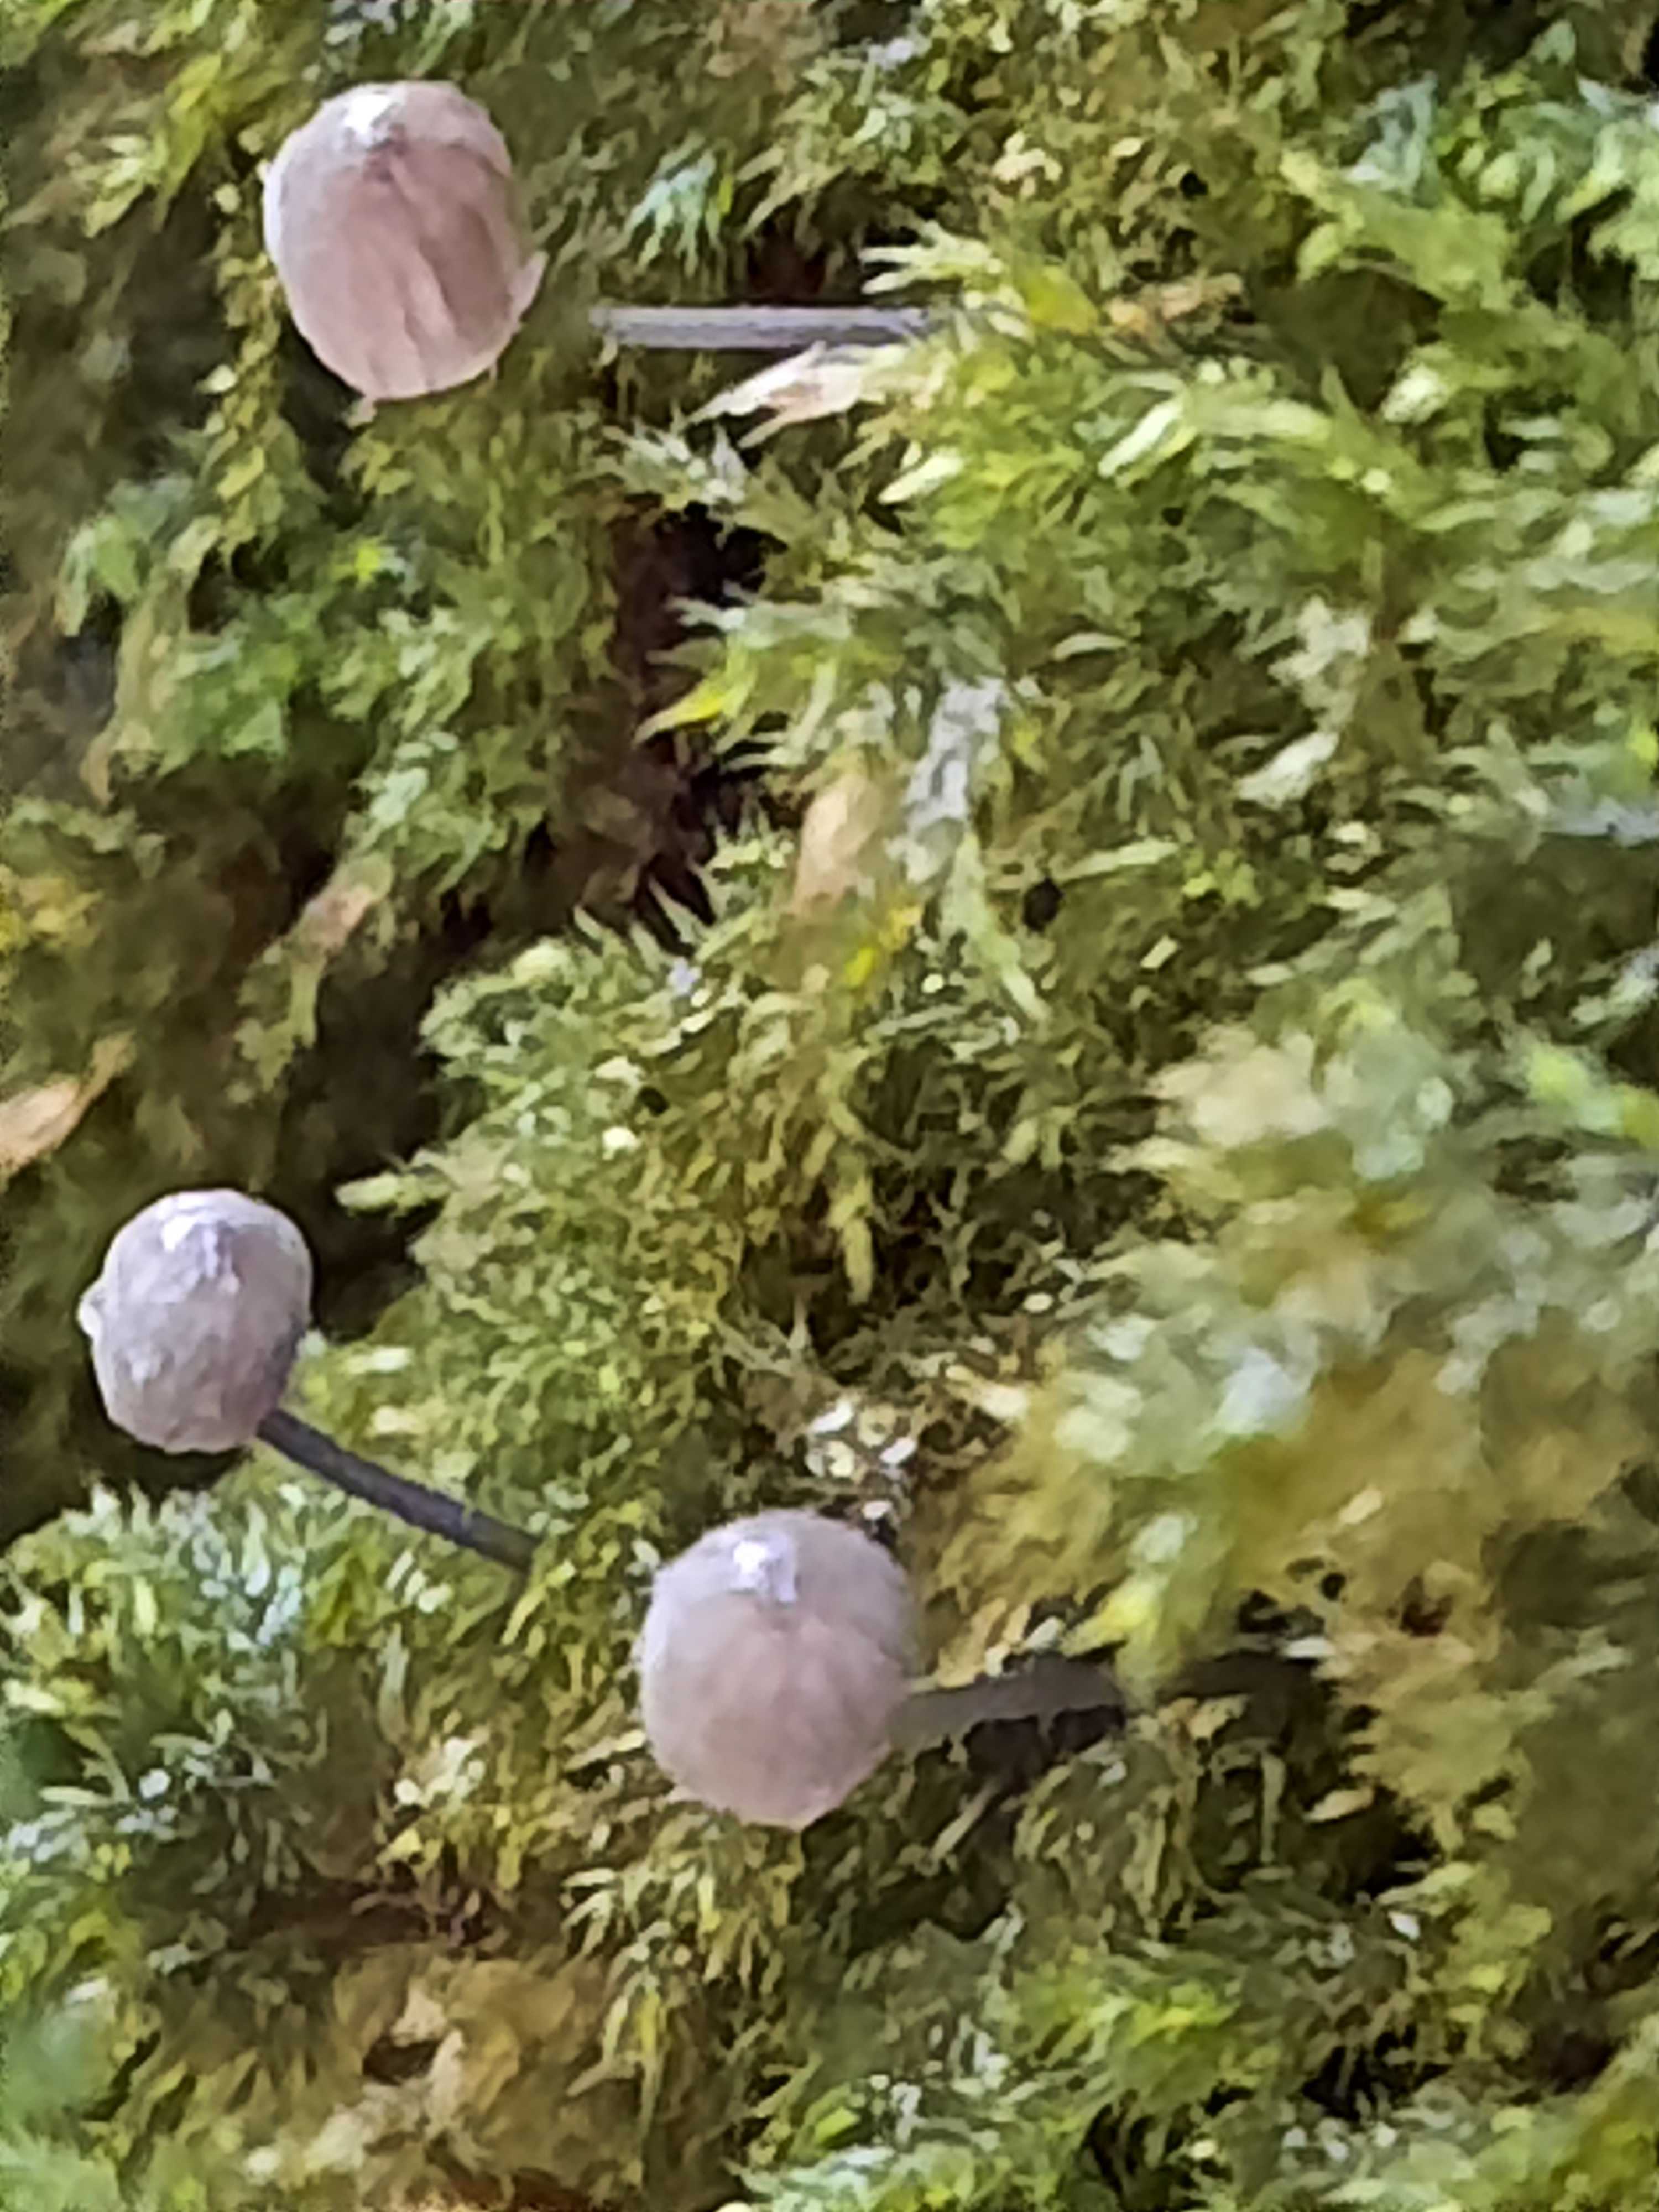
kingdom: Fungi
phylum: Basidiomycota
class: Agaricomycetes
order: Agaricales
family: Mycenaceae
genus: Mycena
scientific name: Mycena pseudocorticola
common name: gråblå bark-huesvamp
